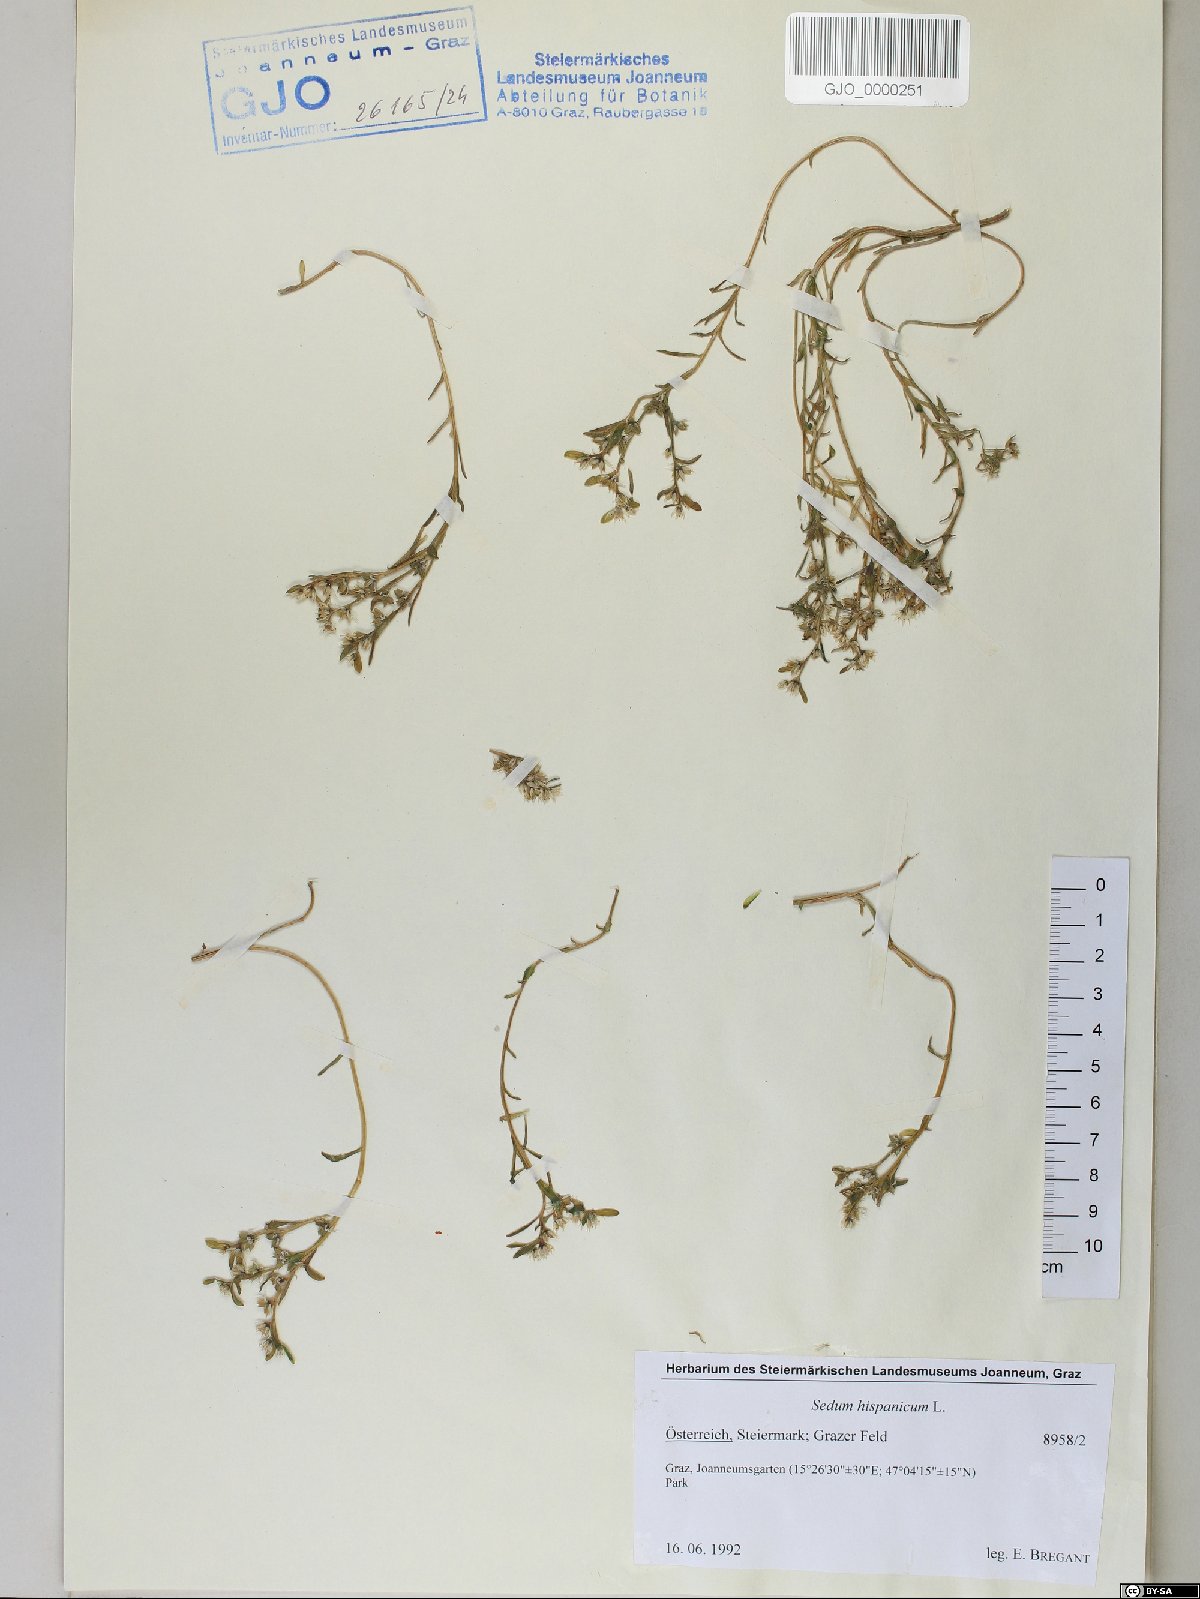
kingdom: Plantae
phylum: Tracheophyta
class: Magnoliopsida
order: Saxifragales
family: Crassulaceae
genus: Sedum
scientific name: Sedum hispanicum
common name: Spanish stonecrop
